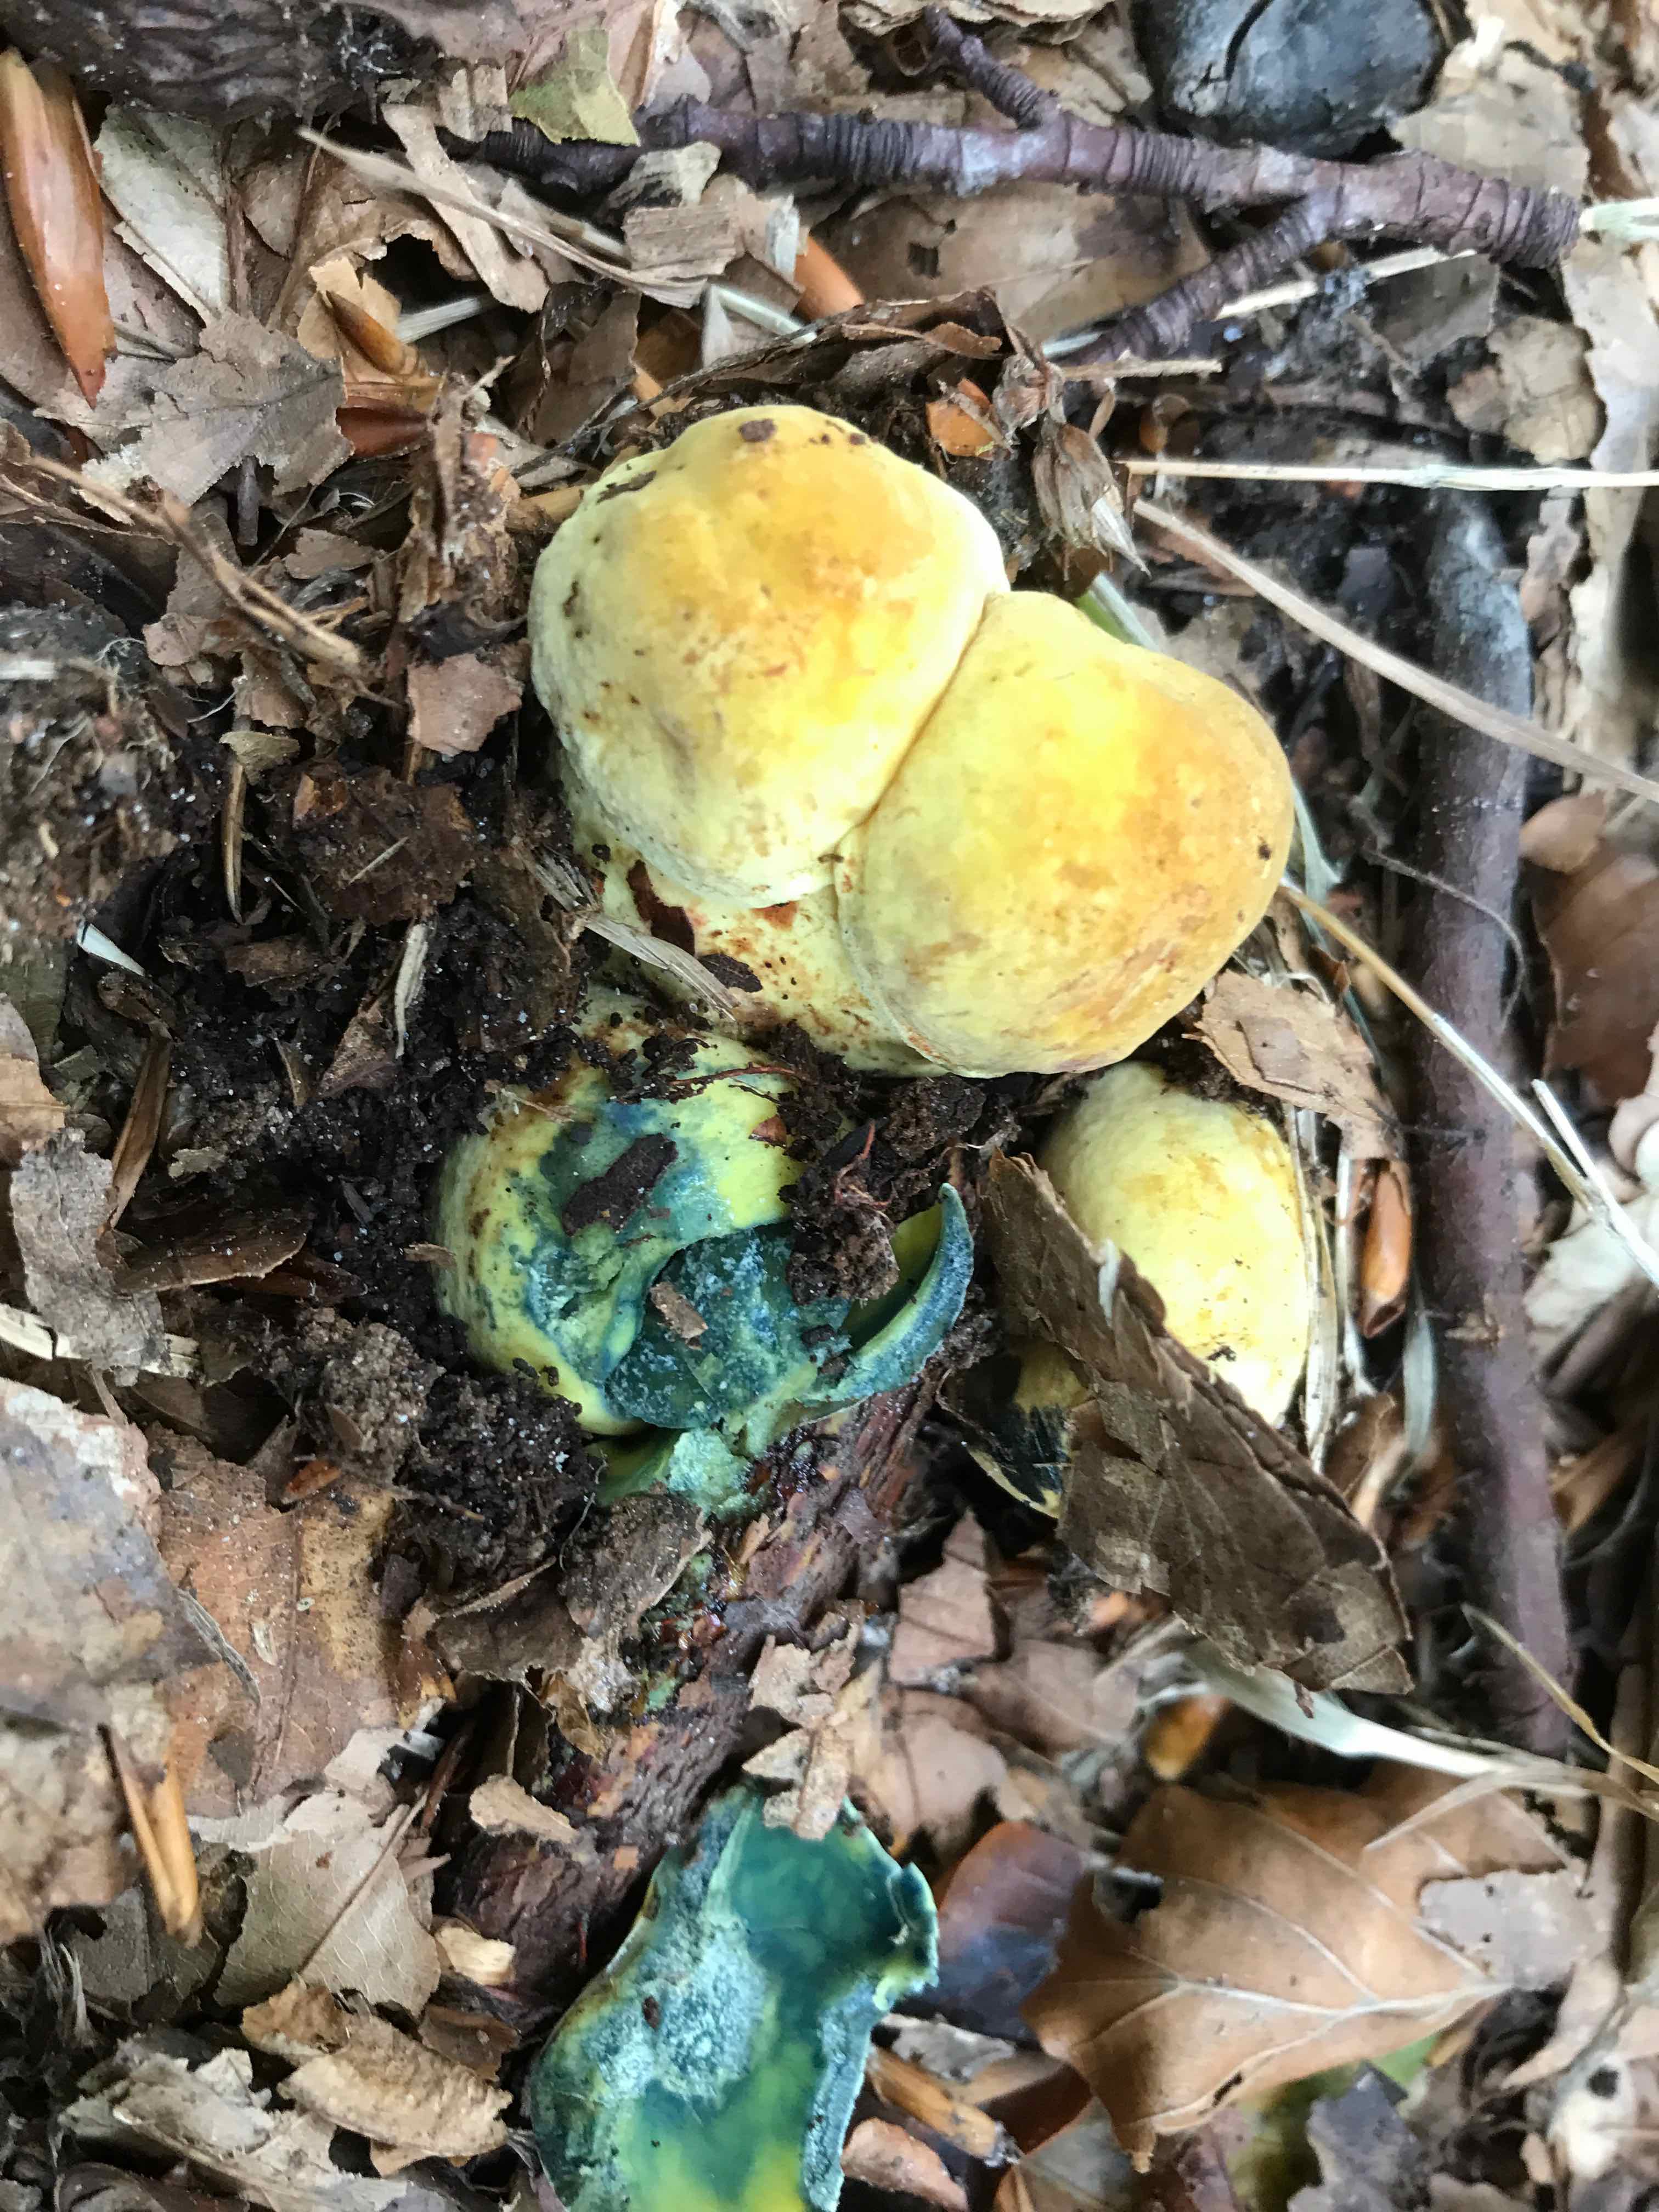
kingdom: Fungi
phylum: Basidiomycota
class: Agaricomycetes
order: Boletales
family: Boletaceae
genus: Neoboletus
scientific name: Neoboletus praestigiator
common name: gul indigorørhat
